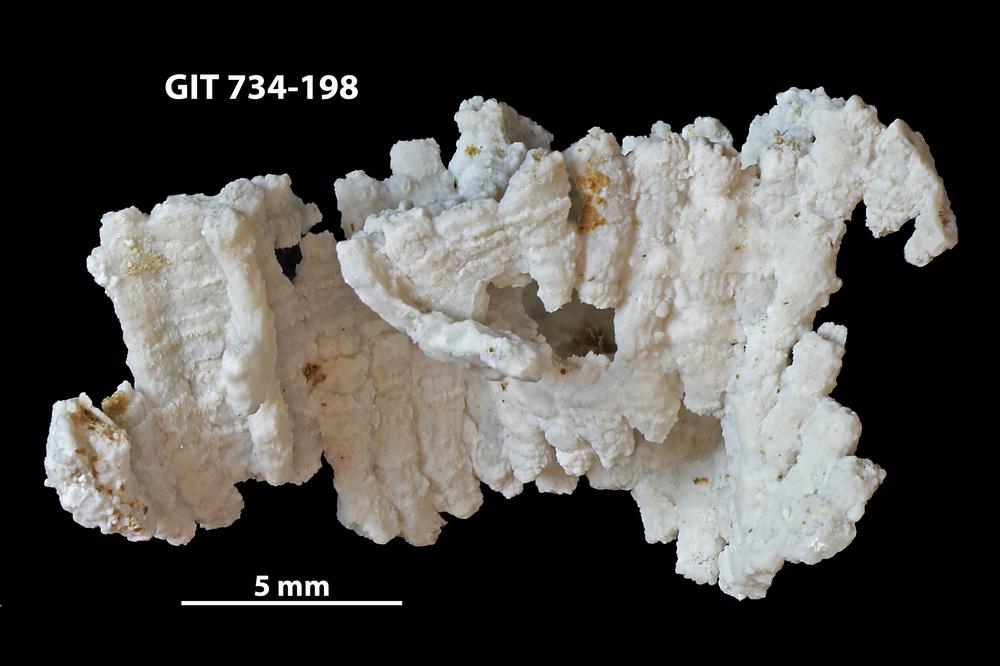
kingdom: Animalia
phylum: Cnidaria
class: Anthozoa
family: Cateniporidae
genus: Catenipora
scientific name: Catenipora
